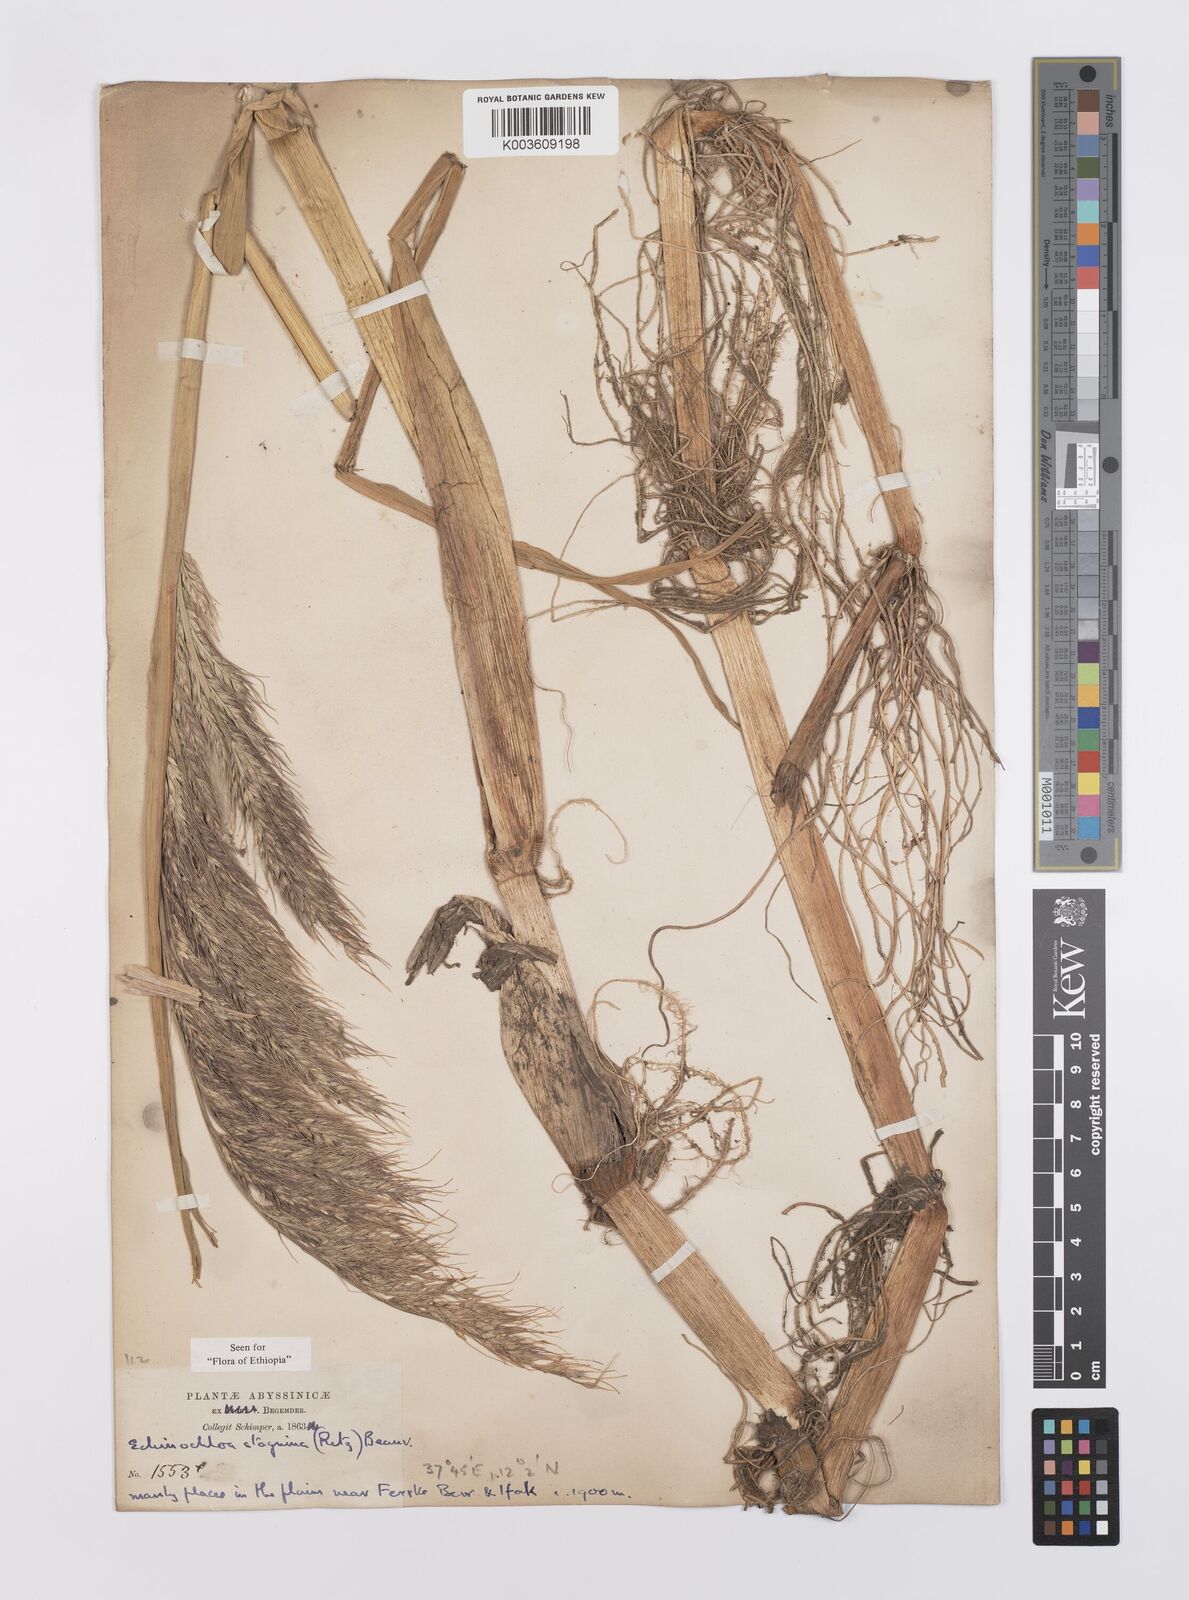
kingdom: Plantae
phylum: Tracheophyta
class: Liliopsida
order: Poales
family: Poaceae
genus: Echinochloa
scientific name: Echinochloa stagnina
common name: Burgu grass
